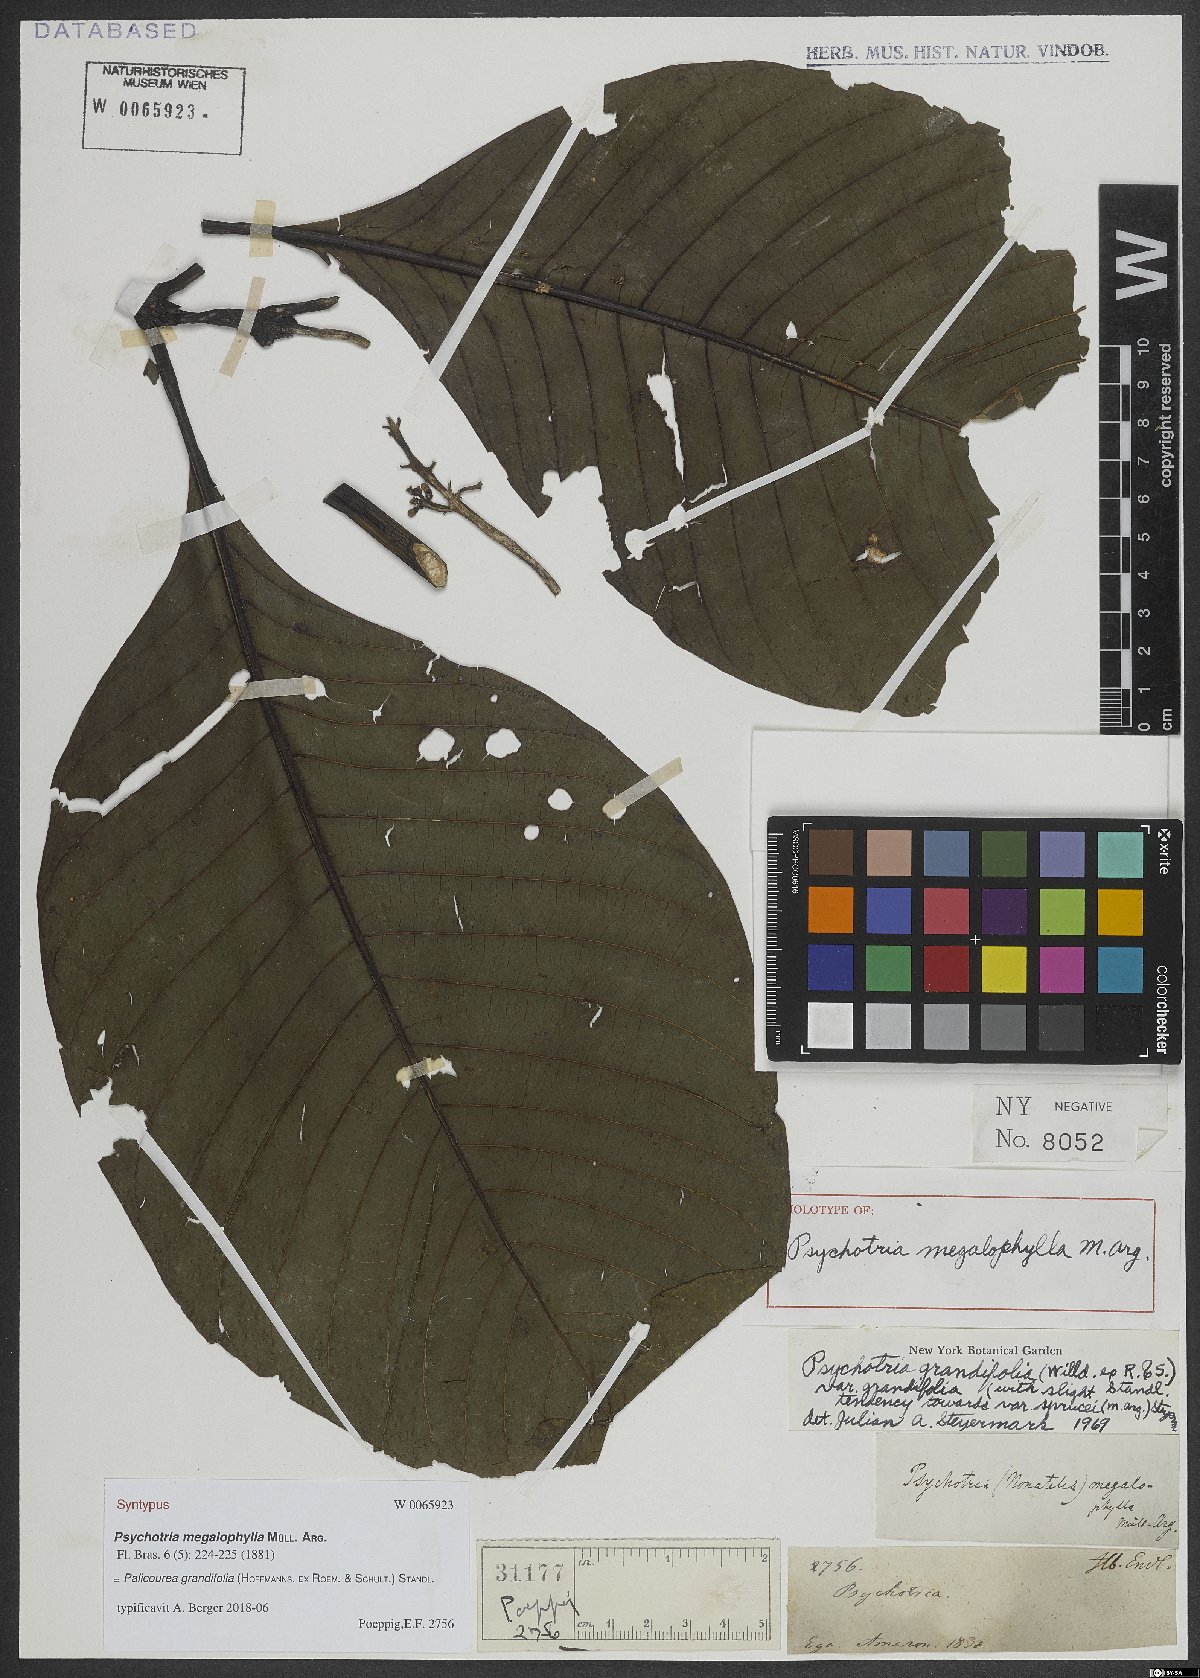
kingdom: Plantae
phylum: Tracheophyta
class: Magnoliopsida
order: Gentianales
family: Rubiaceae
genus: Palicourea
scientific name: Palicourea grandifolia
